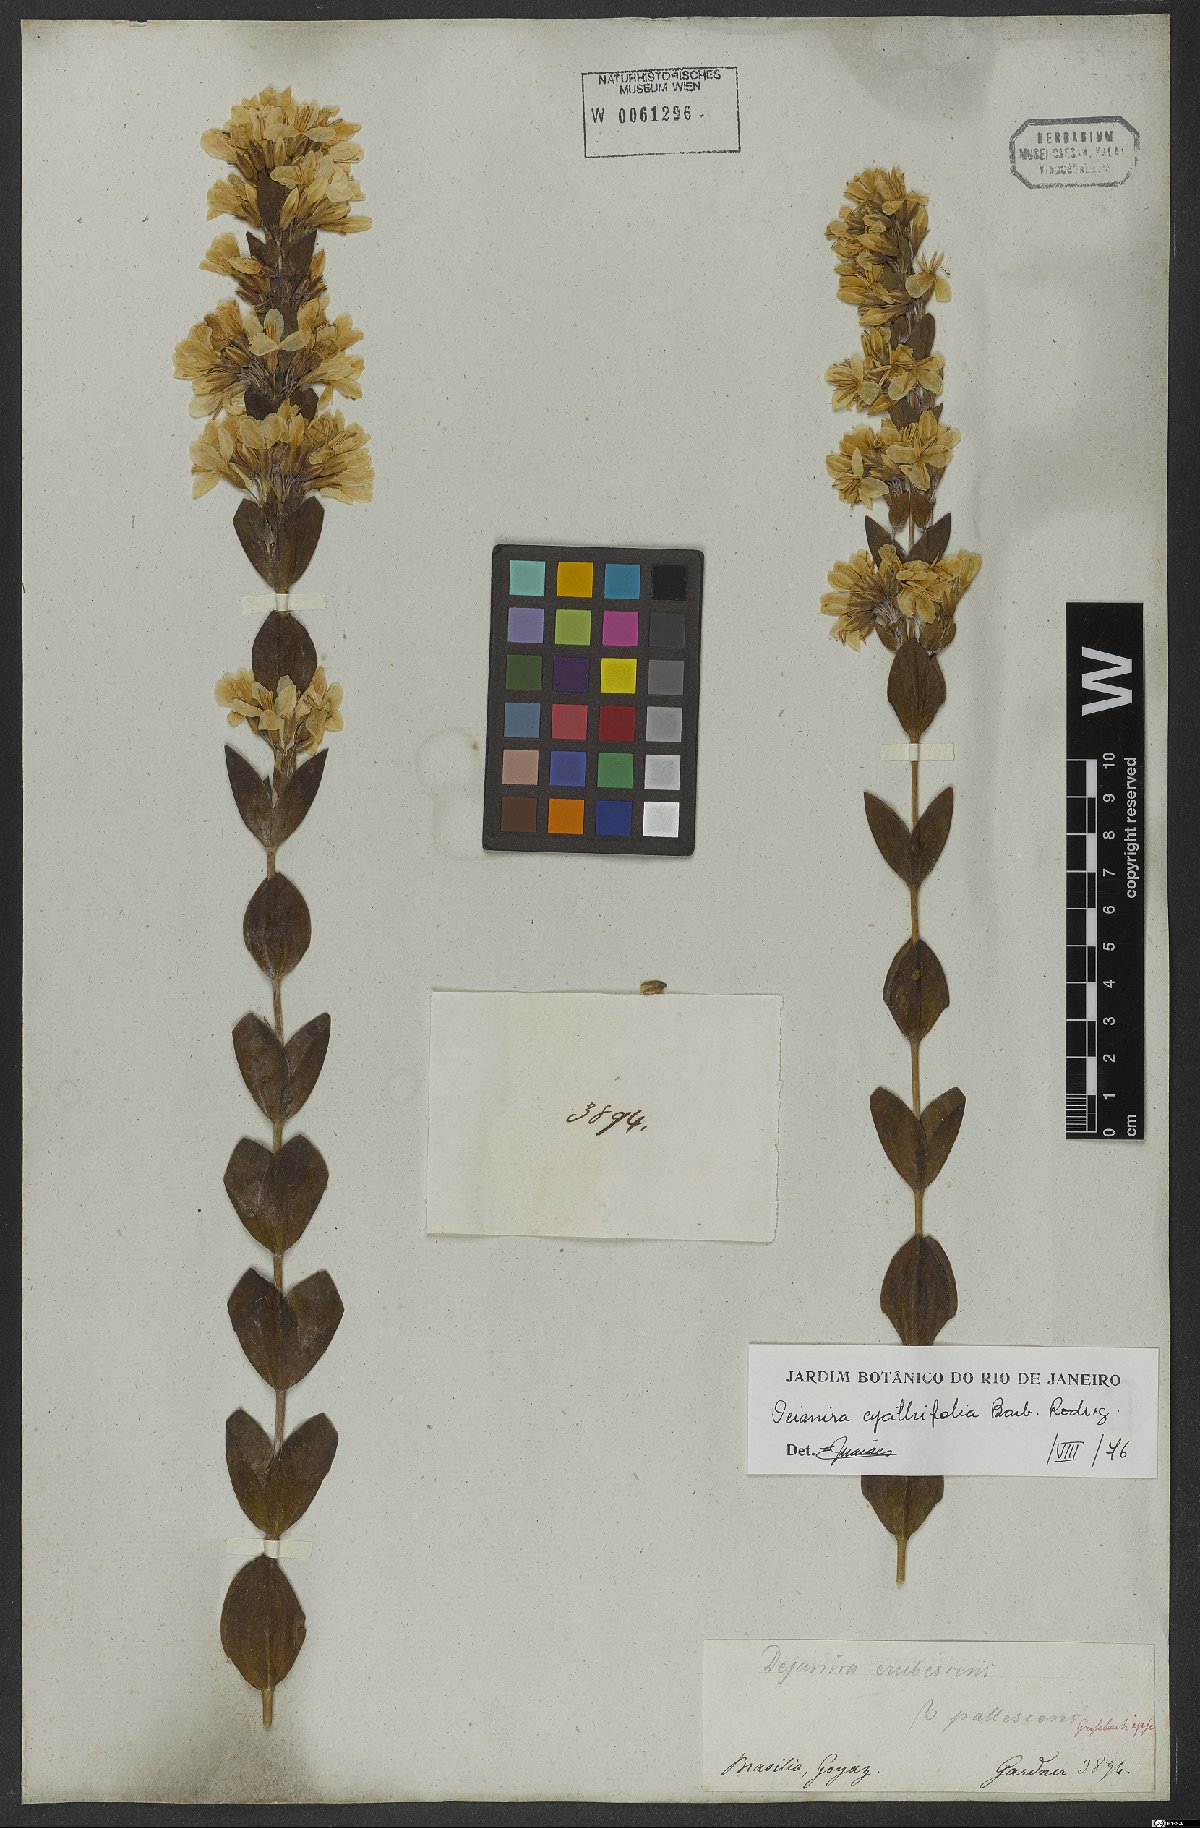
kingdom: Plantae
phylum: Tracheophyta
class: Magnoliopsida
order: Gentianales
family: Gentianaceae
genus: Deianira
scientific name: Deianira cyathifolia
